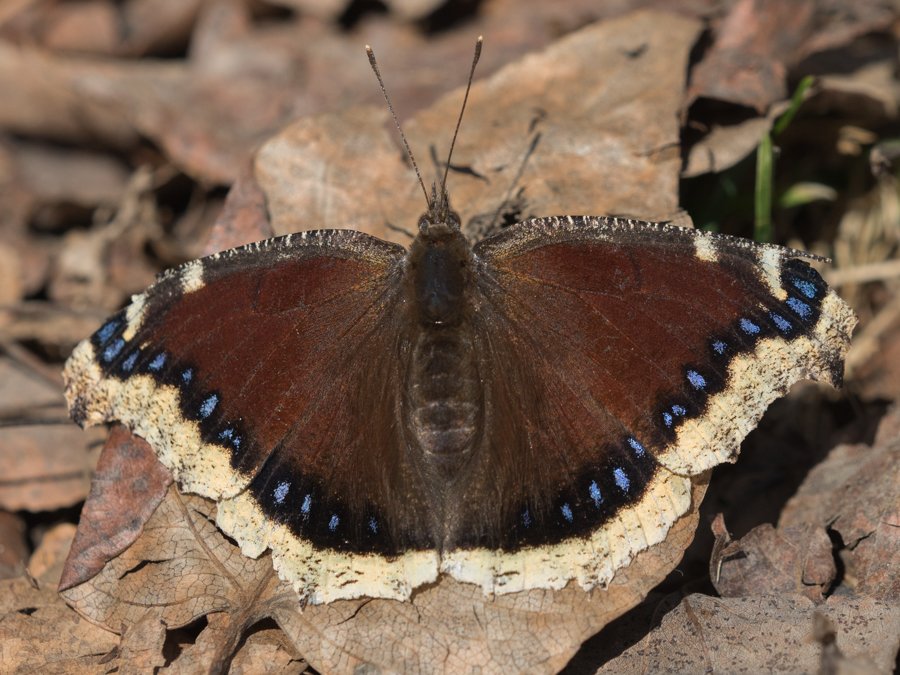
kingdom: Animalia
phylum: Arthropoda
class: Insecta
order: Lepidoptera
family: Nymphalidae
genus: Nymphalis
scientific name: Nymphalis antiopa
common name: Mourning Cloak
